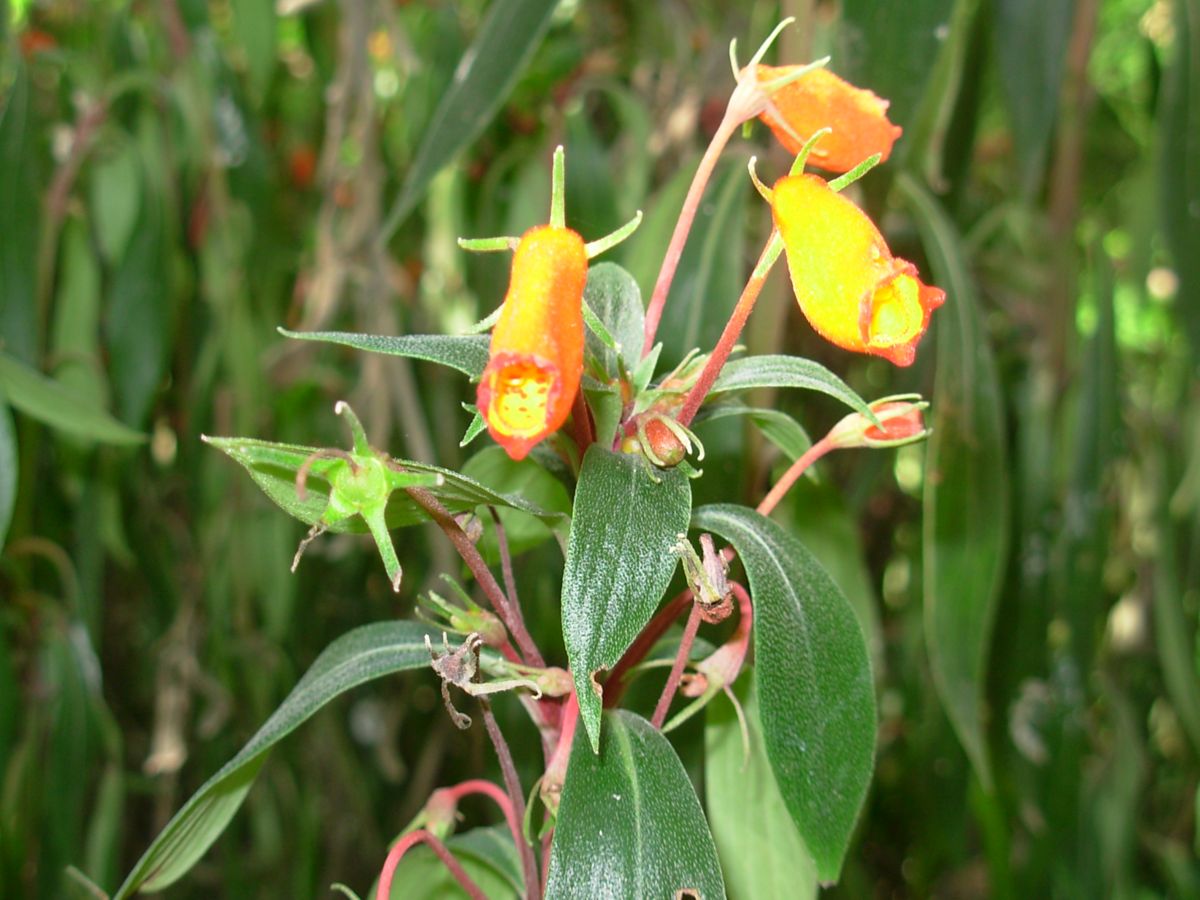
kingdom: Plantae
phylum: Tracheophyta
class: Magnoliopsida
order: Lamiales
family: Gesneriaceae
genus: Seemannia
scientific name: Seemannia sylvatica
